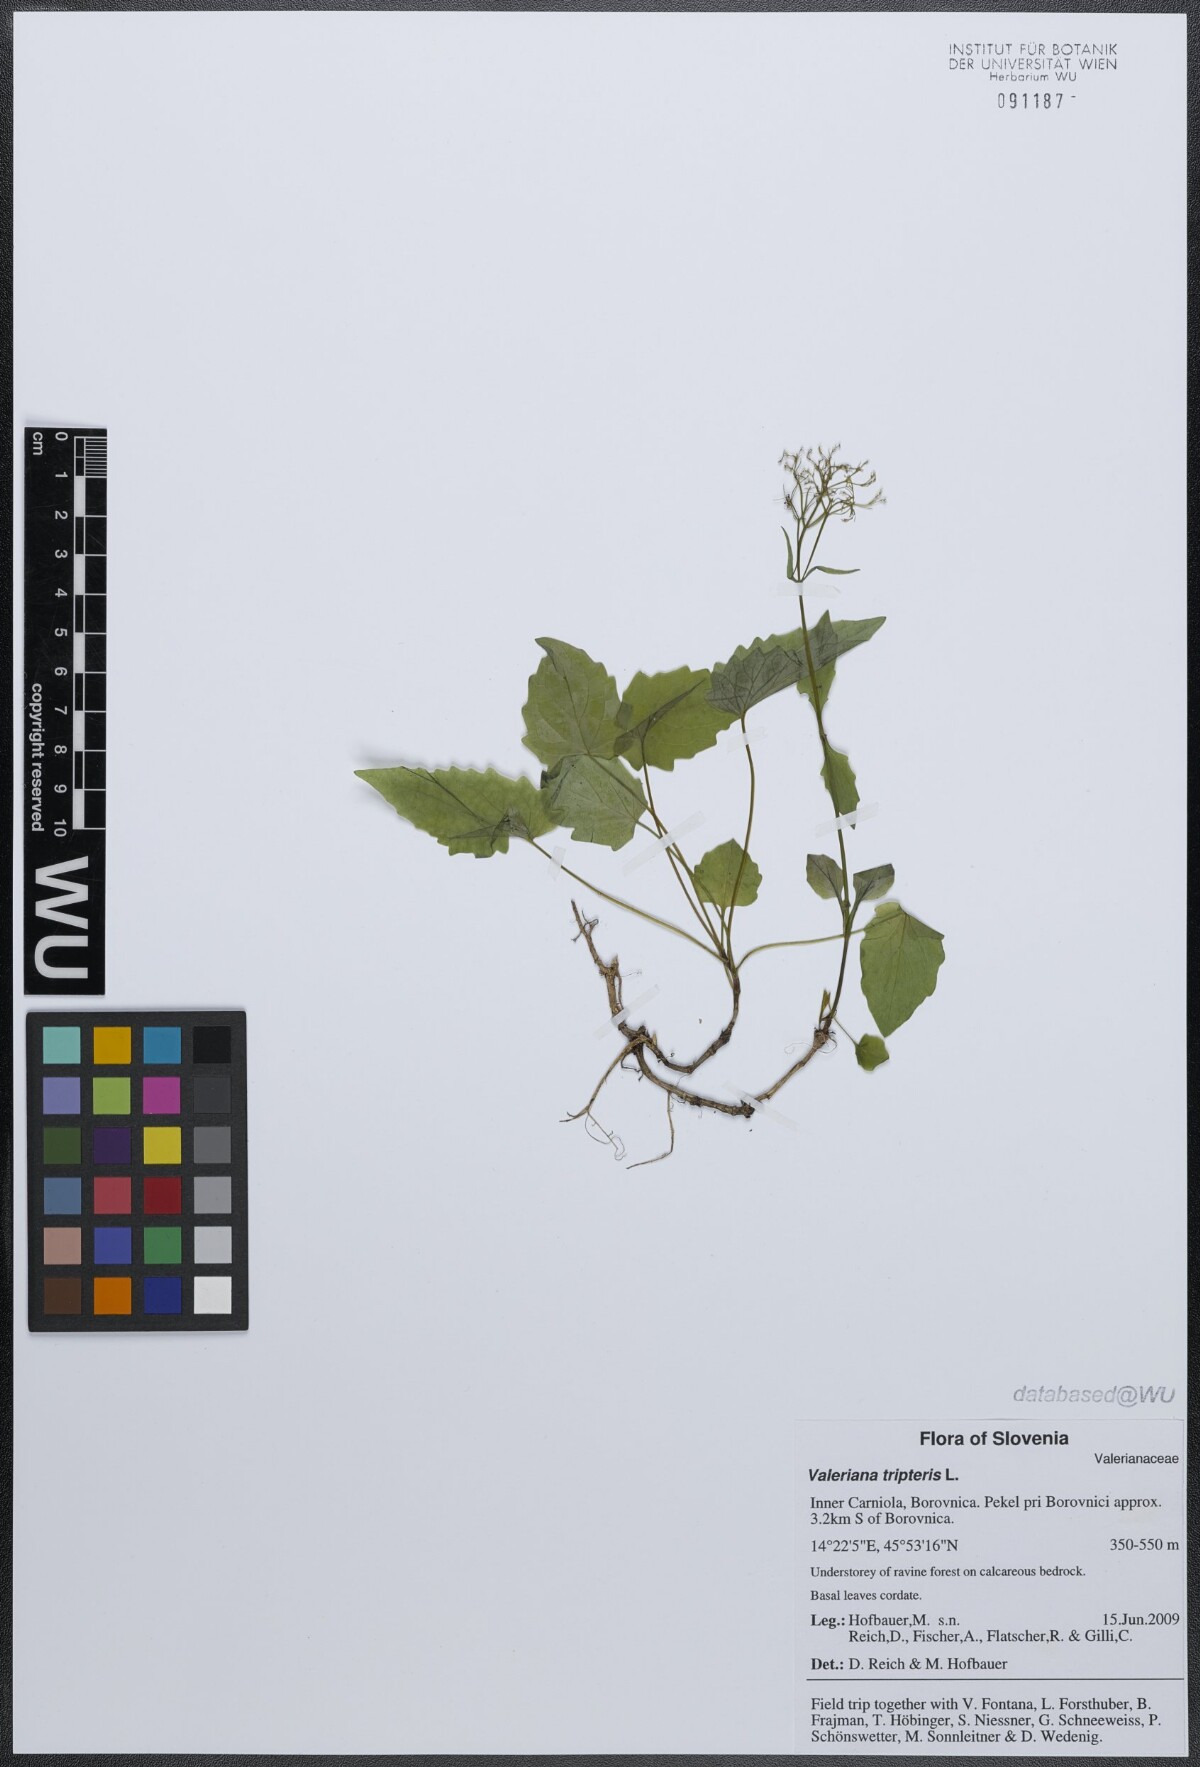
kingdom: Plantae
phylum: Tracheophyta
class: Magnoliopsida
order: Dipsacales
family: Caprifoliaceae
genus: Valeriana
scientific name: Valeriana tripteris
